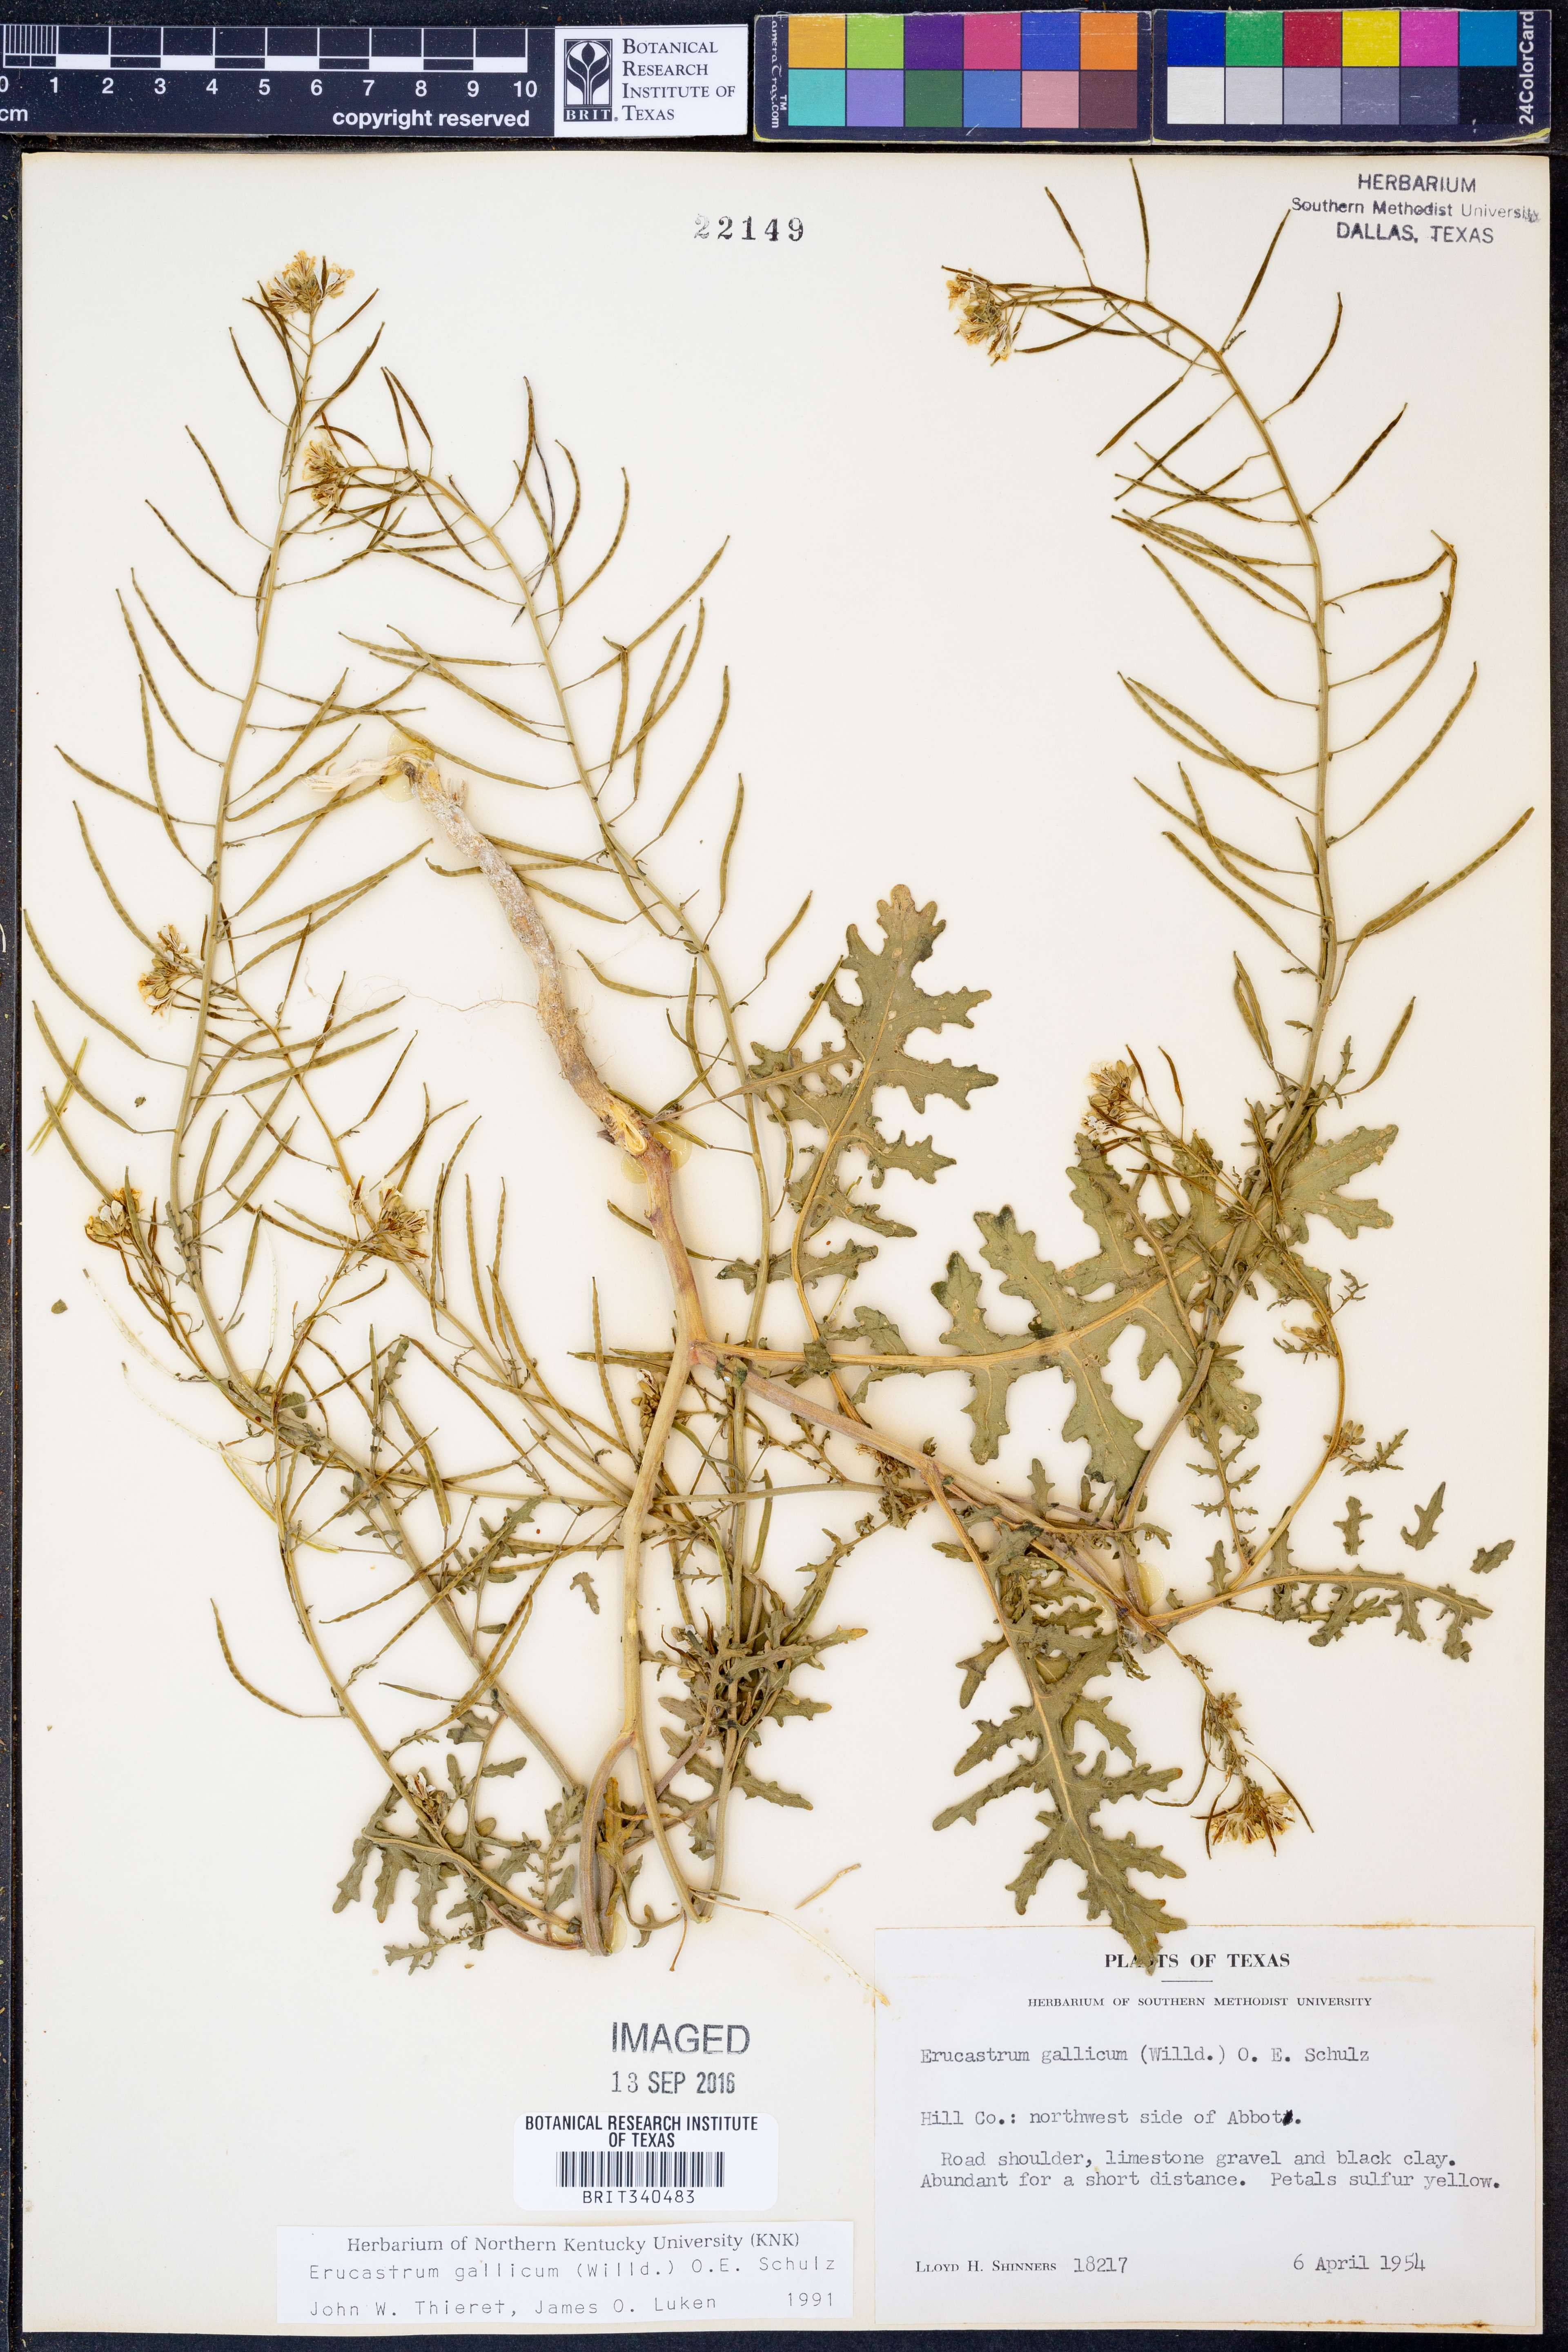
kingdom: Plantae
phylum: Tracheophyta
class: Magnoliopsida
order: Brassicales
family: Brassicaceae
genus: Erucastrum
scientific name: Erucastrum gallicum
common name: Hairy rocket
